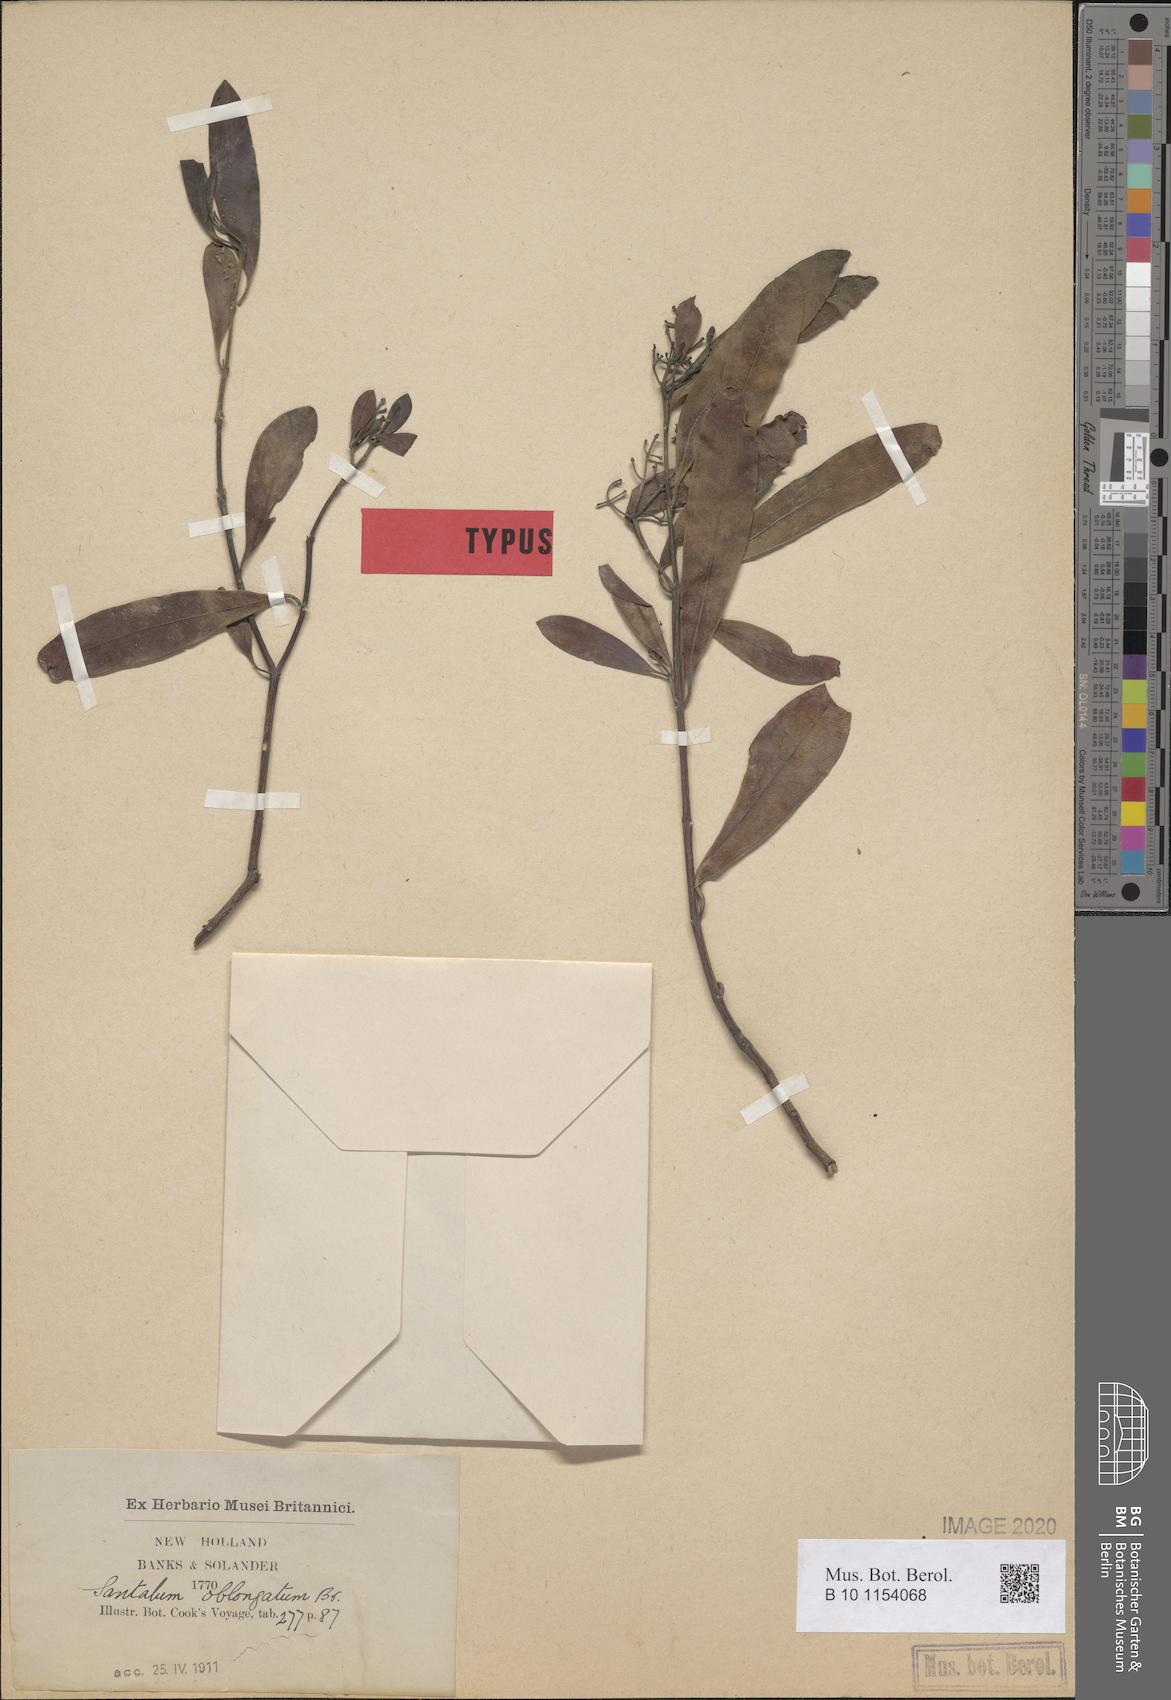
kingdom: Plantae
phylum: Tracheophyta
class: Magnoliopsida
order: Santalales
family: Santalaceae
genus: Santalum
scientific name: Santalum lanceolatum
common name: Ankwerley
